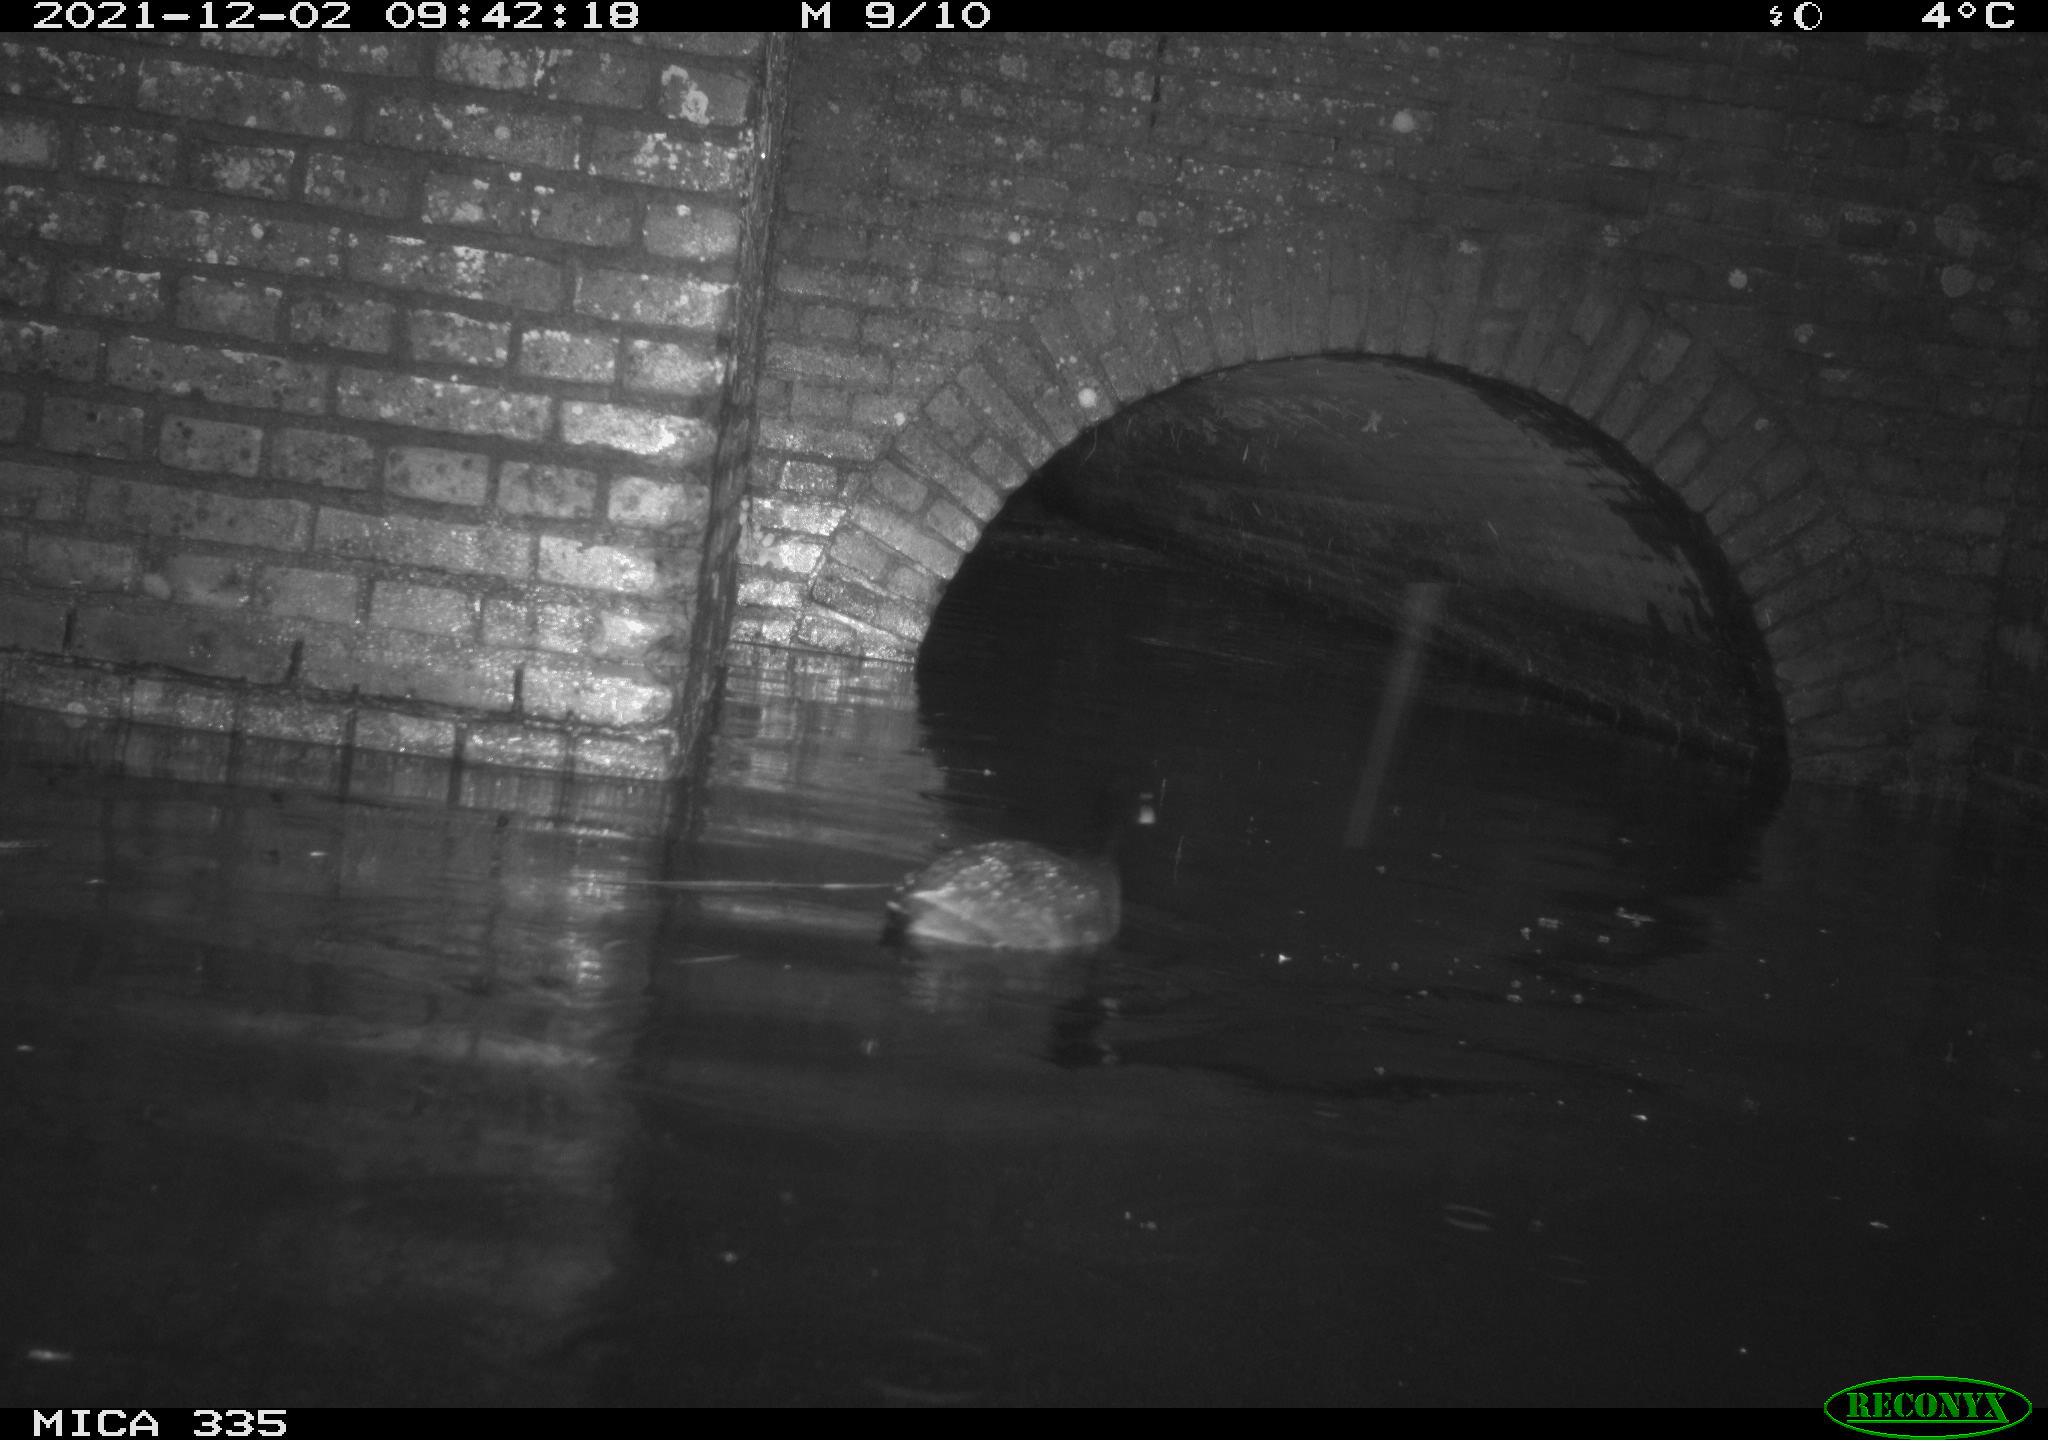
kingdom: Animalia
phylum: Chordata
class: Aves
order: Gruiformes
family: Rallidae
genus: Fulica
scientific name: Fulica atra
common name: Eurasian coot
